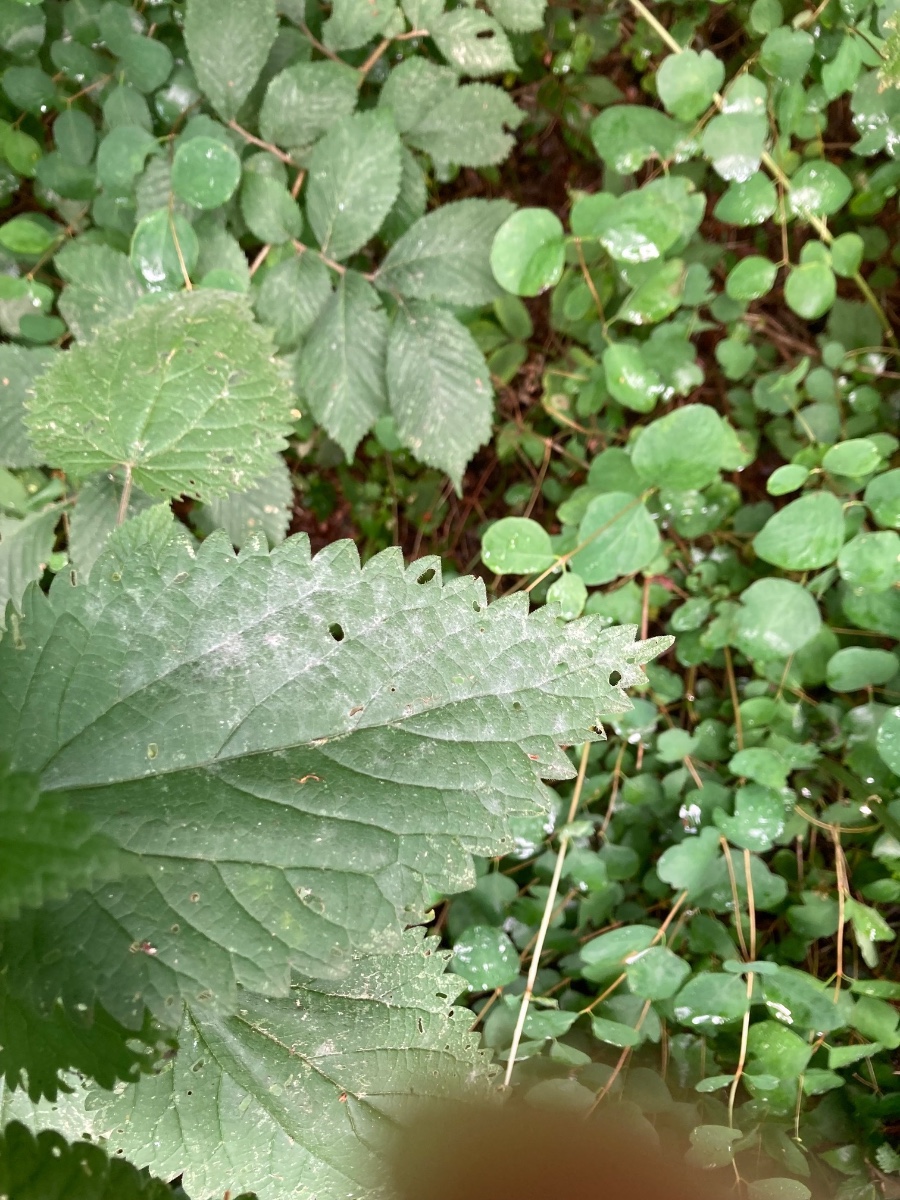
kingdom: Fungi
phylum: Ascomycota
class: Leotiomycetes
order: Helotiales
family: Erysiphaceae
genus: Erysiphe
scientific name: Erysiphe urticae
